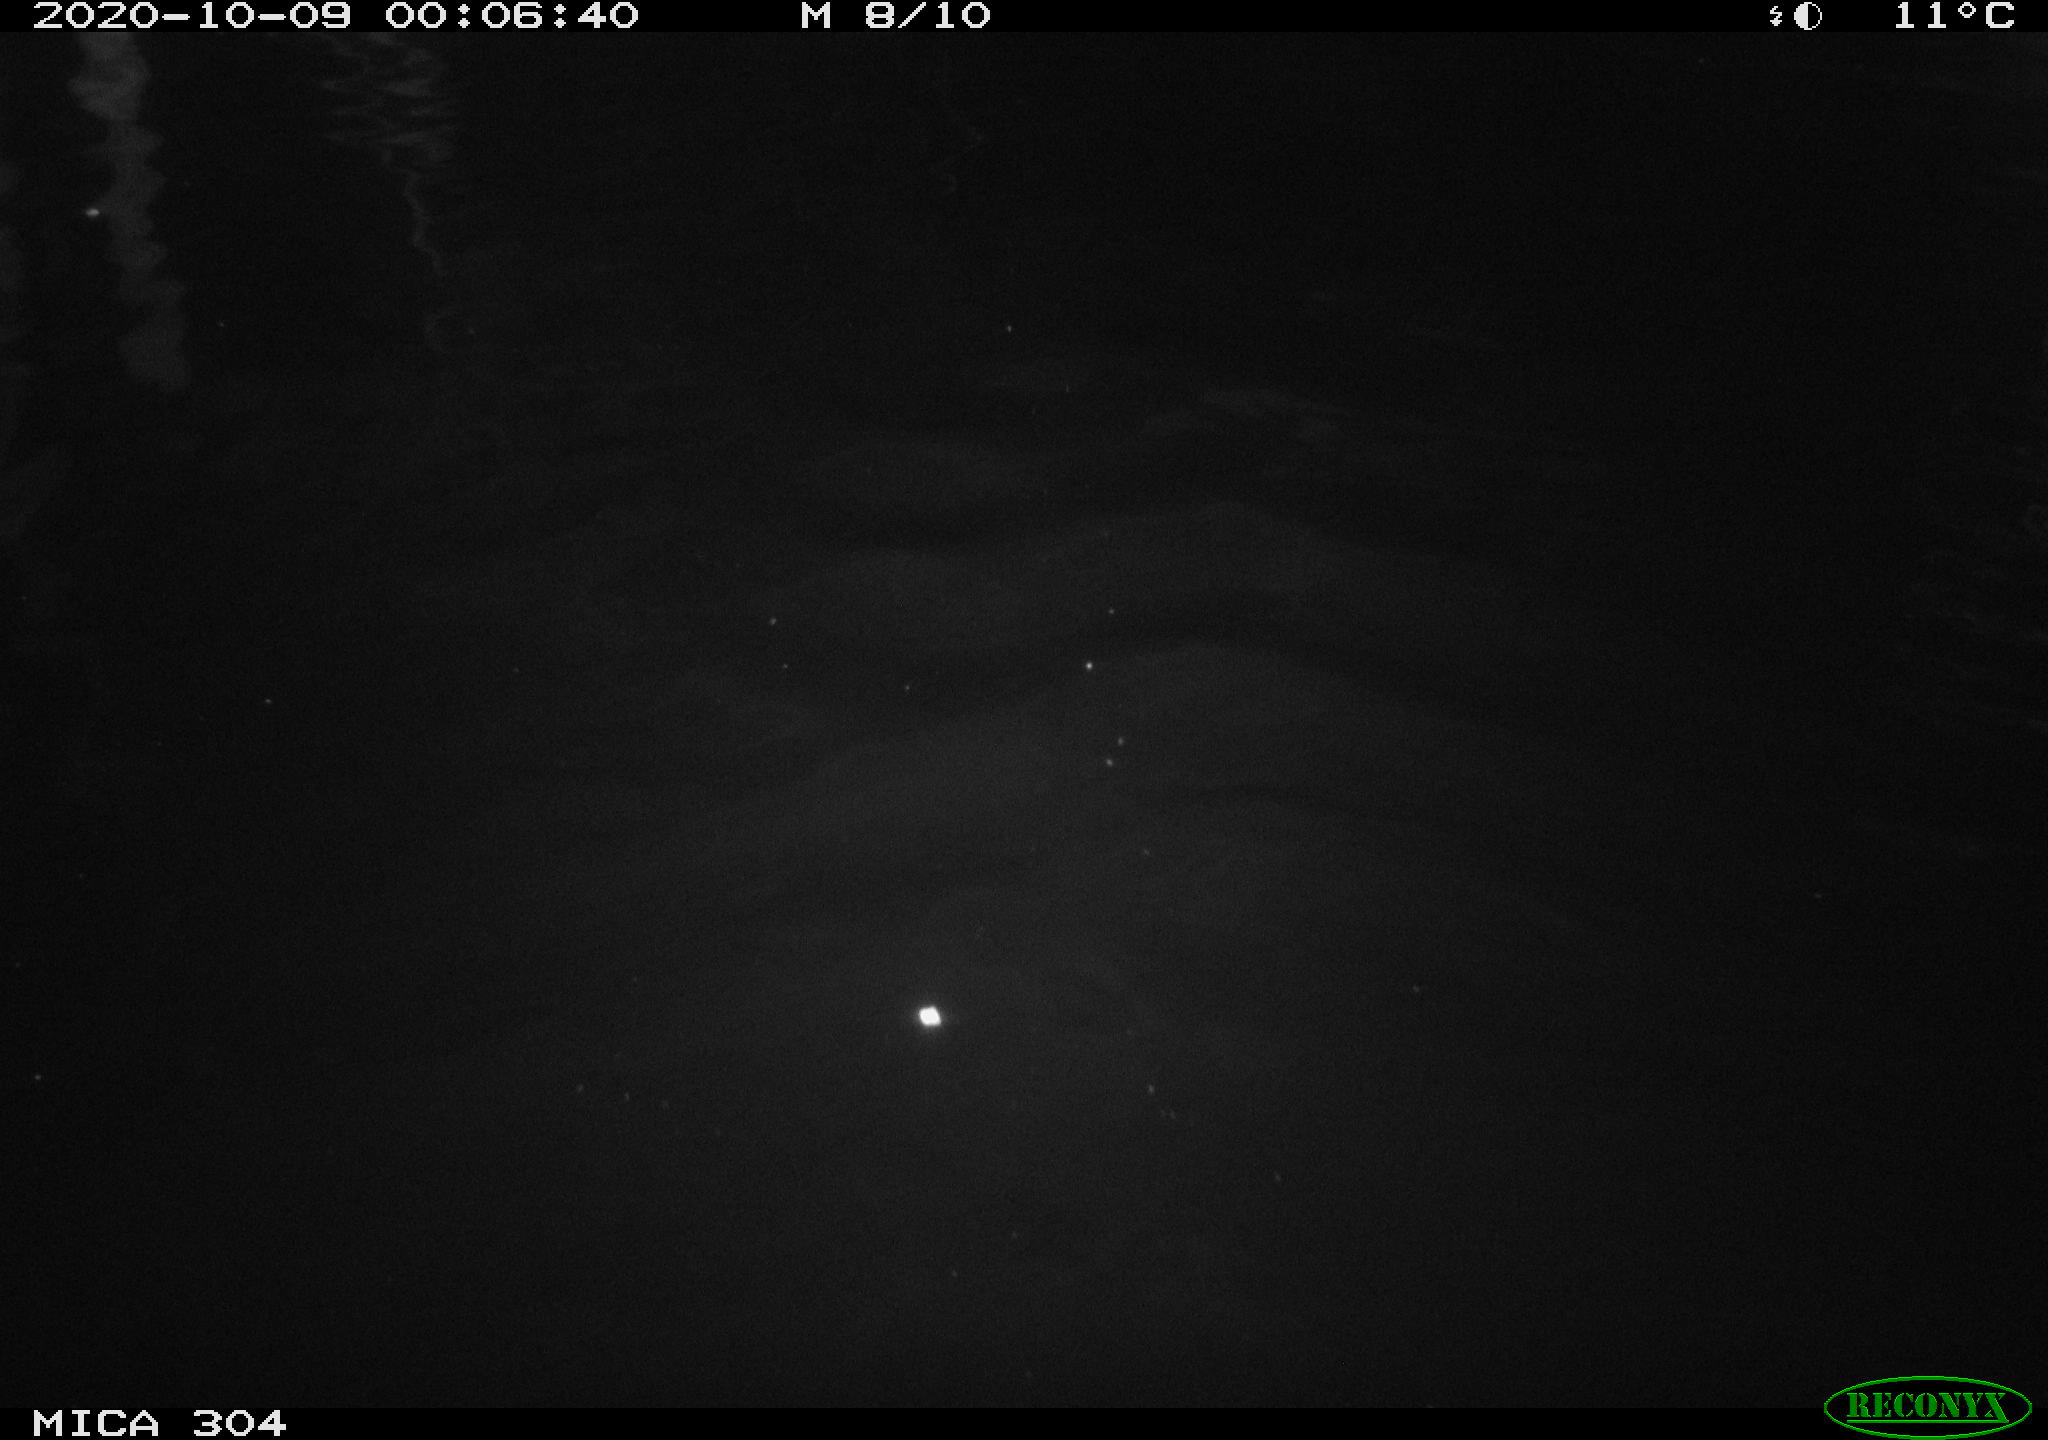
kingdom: Animalia
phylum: Chordata
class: Mammalia
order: Rodentia
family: Cricetidae
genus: Ondatra
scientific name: Ondatra zibethicus
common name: Muskrat
